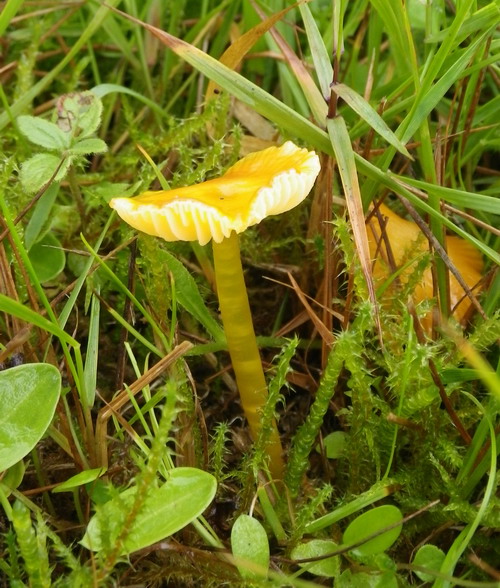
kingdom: Fungi
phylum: Basidiomycota
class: Agaricomycetes
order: Agaricales
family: Hygrophoraceae
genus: Hygrocybe
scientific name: Hygrocybe glutinipes
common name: slimstokket vokshat
